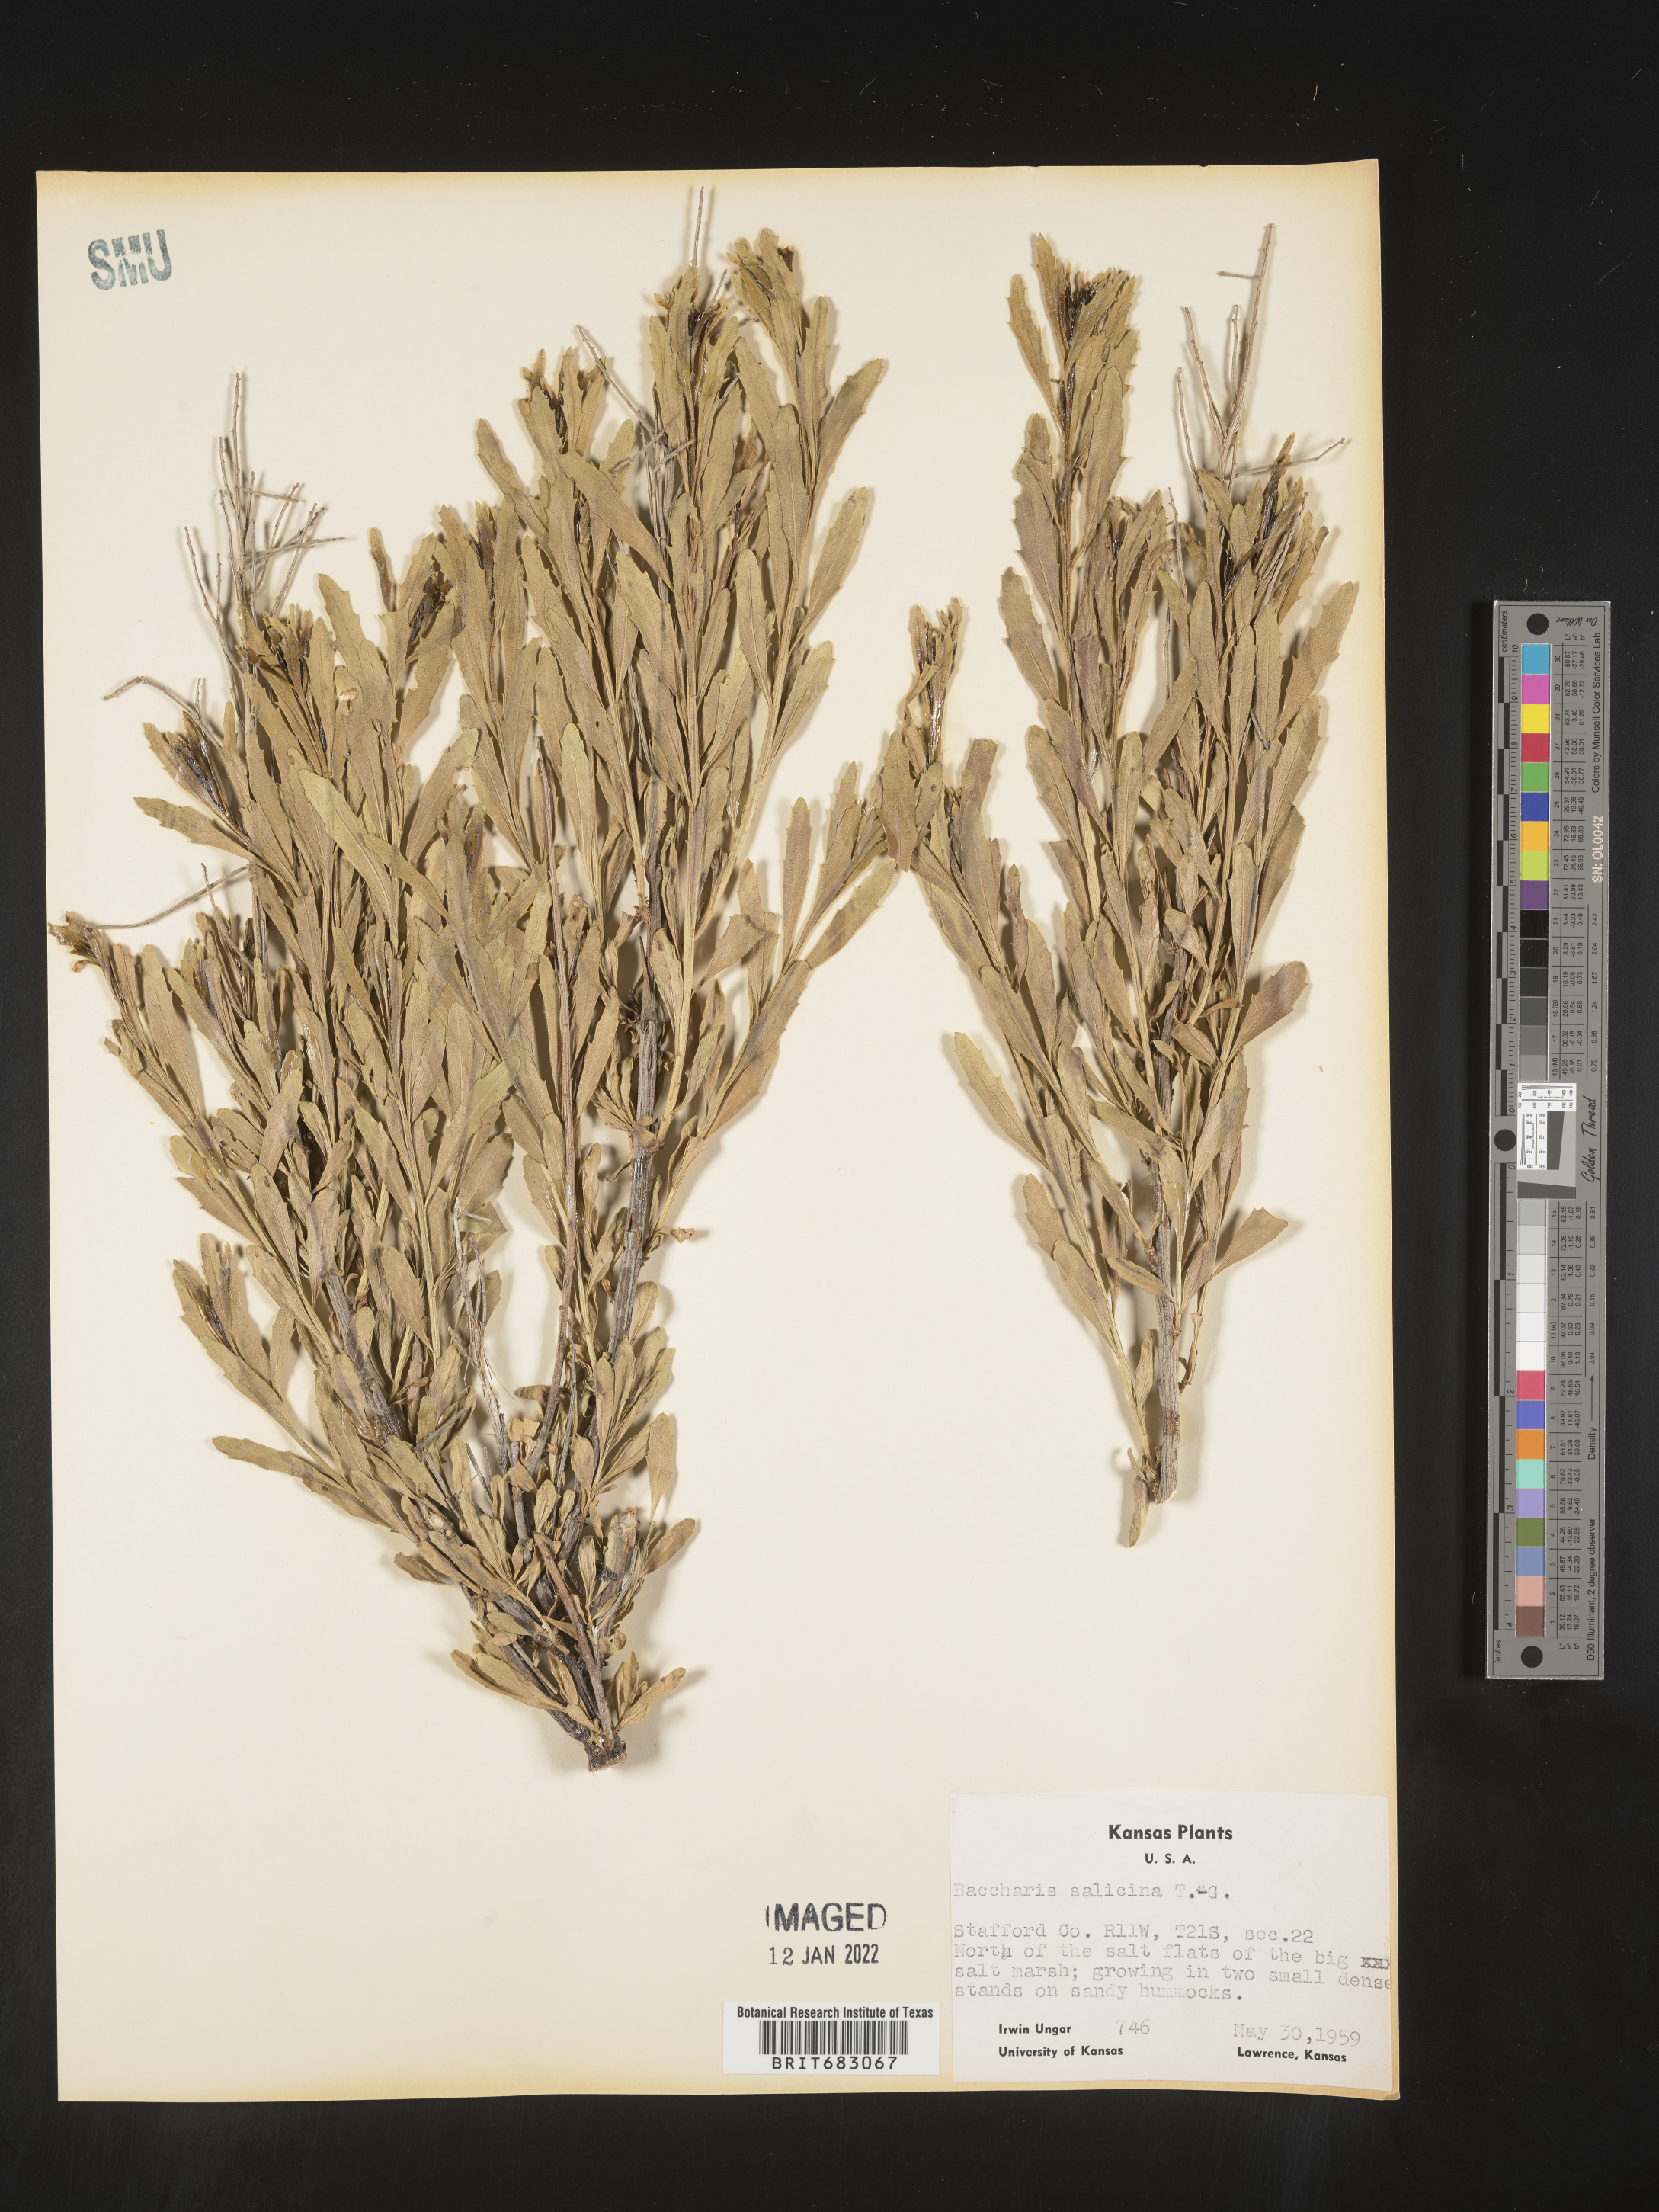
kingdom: Plantae
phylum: Tracheophyta
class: Magnoliopsida
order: Asterales
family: Asteraceae
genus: Baccharis
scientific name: Baccharis salicina
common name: Willow baccharis
